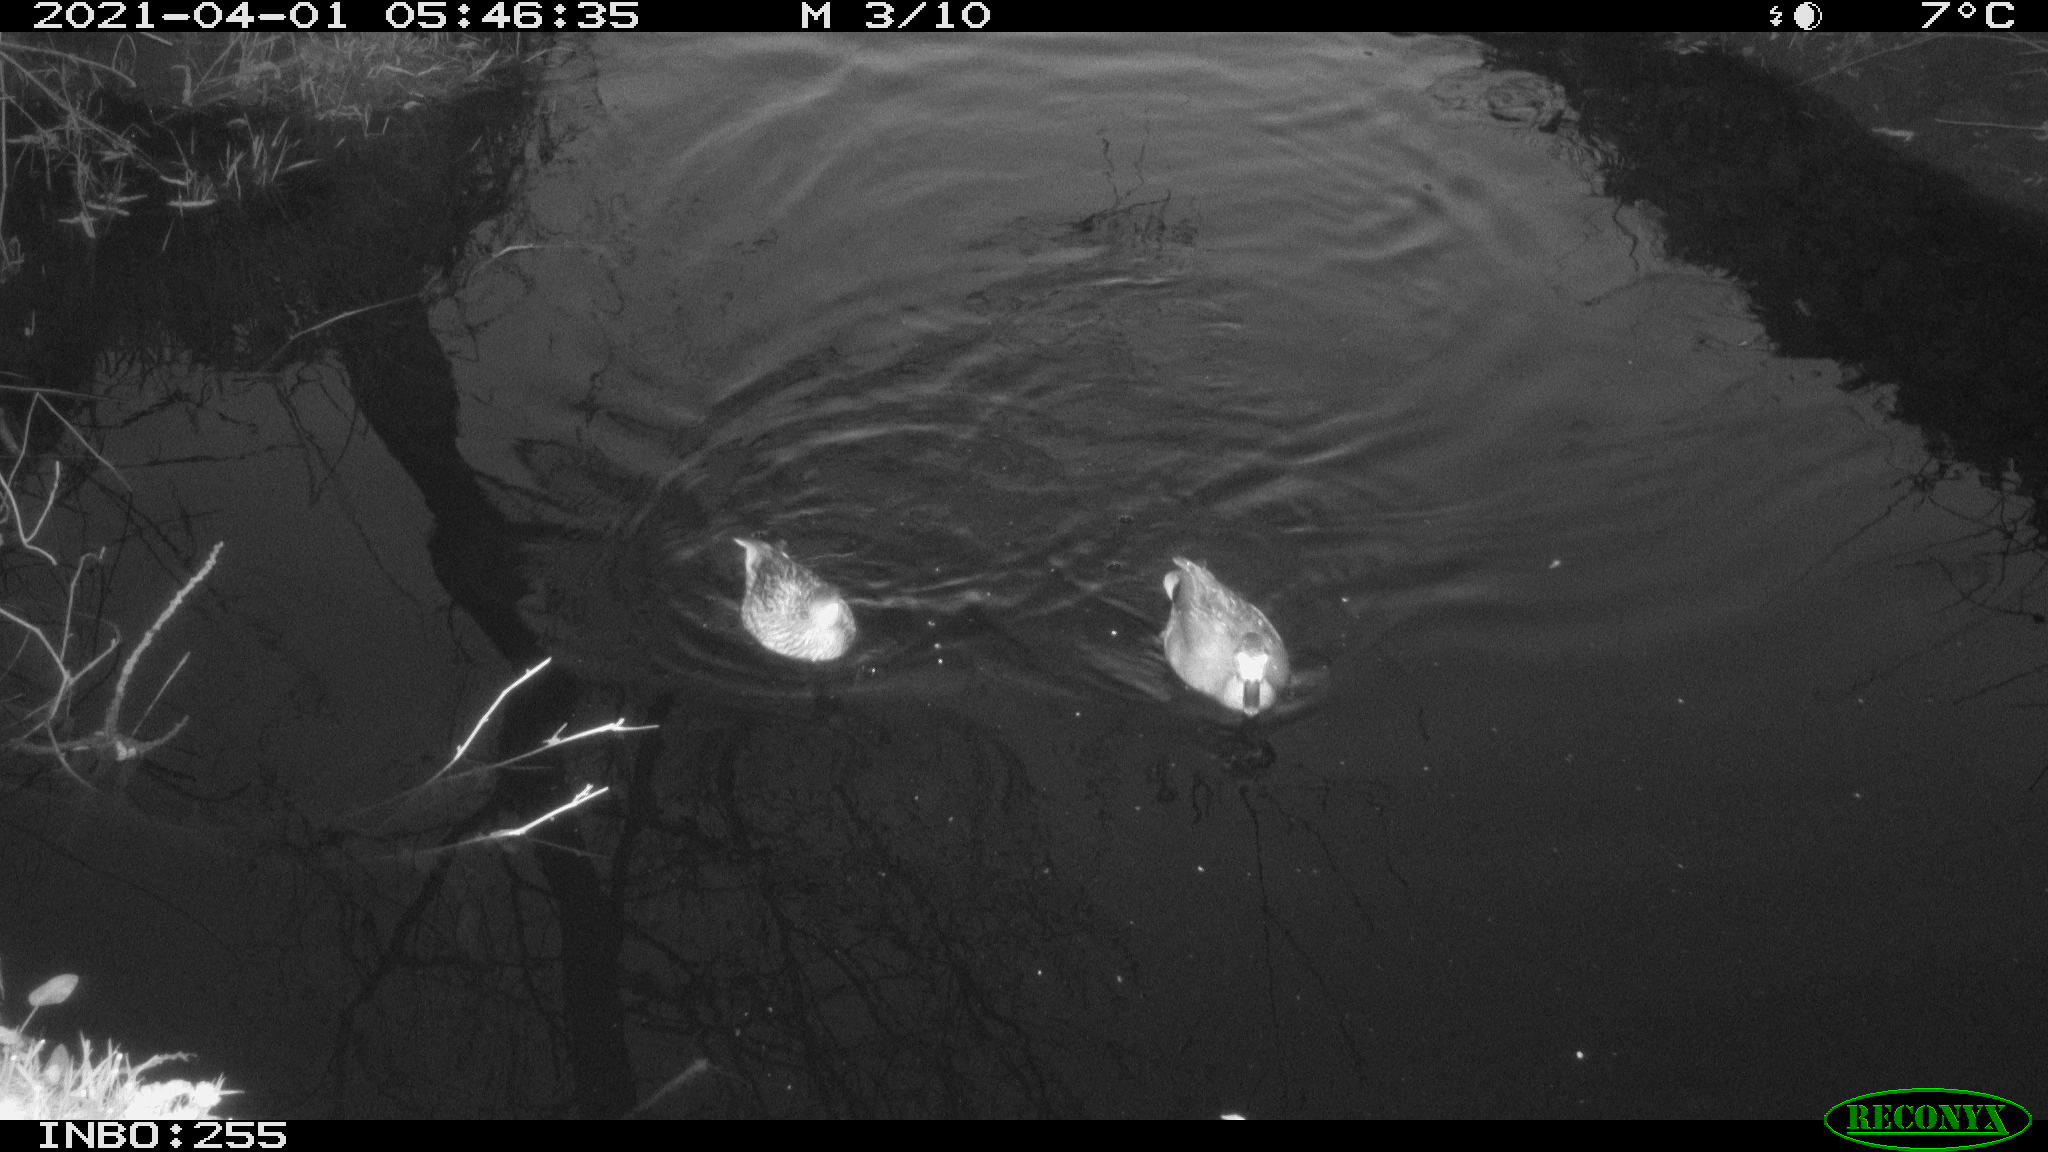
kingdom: Animalia
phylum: Chordata
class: Aves
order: Anseriformes
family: Anatidae
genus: Mareca
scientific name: Mareca strepera
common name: Gadwall
